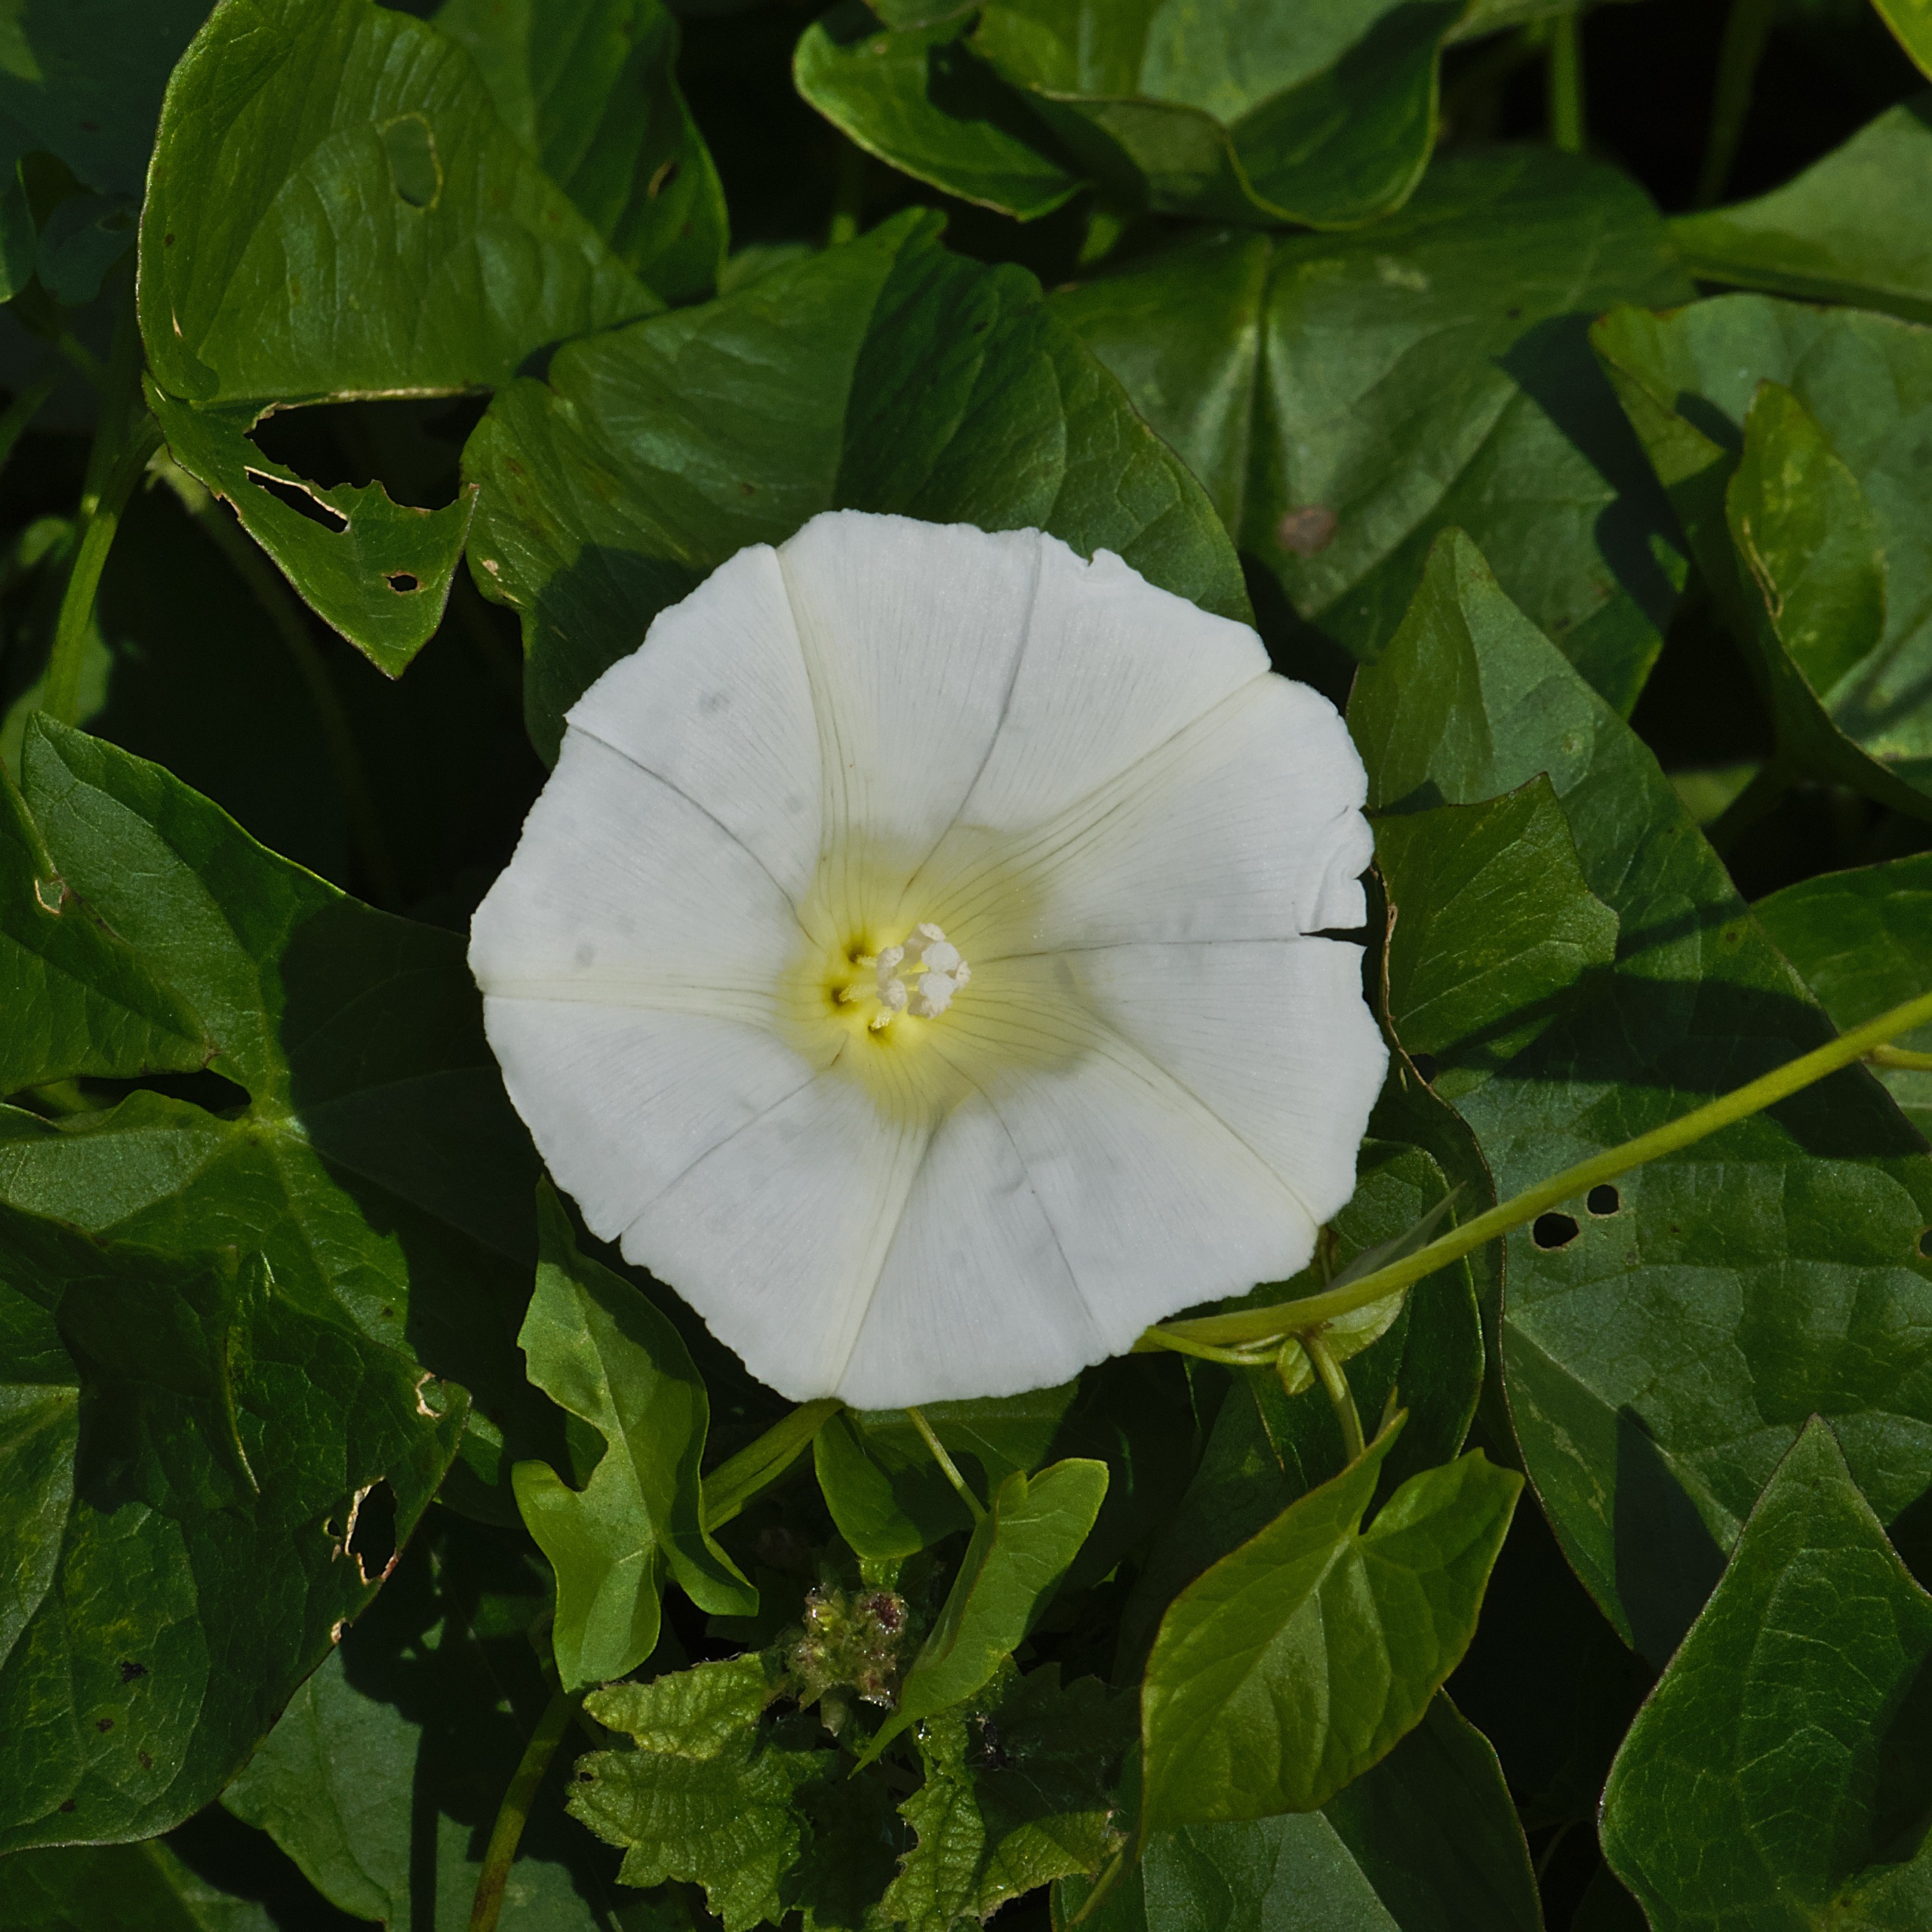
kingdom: Plantae
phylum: Tracheophyta
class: Magnoliopsida
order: Solanales
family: Convolvulaceae
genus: Calystegia
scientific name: Calystegia sepium
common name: Gærde-snerle
